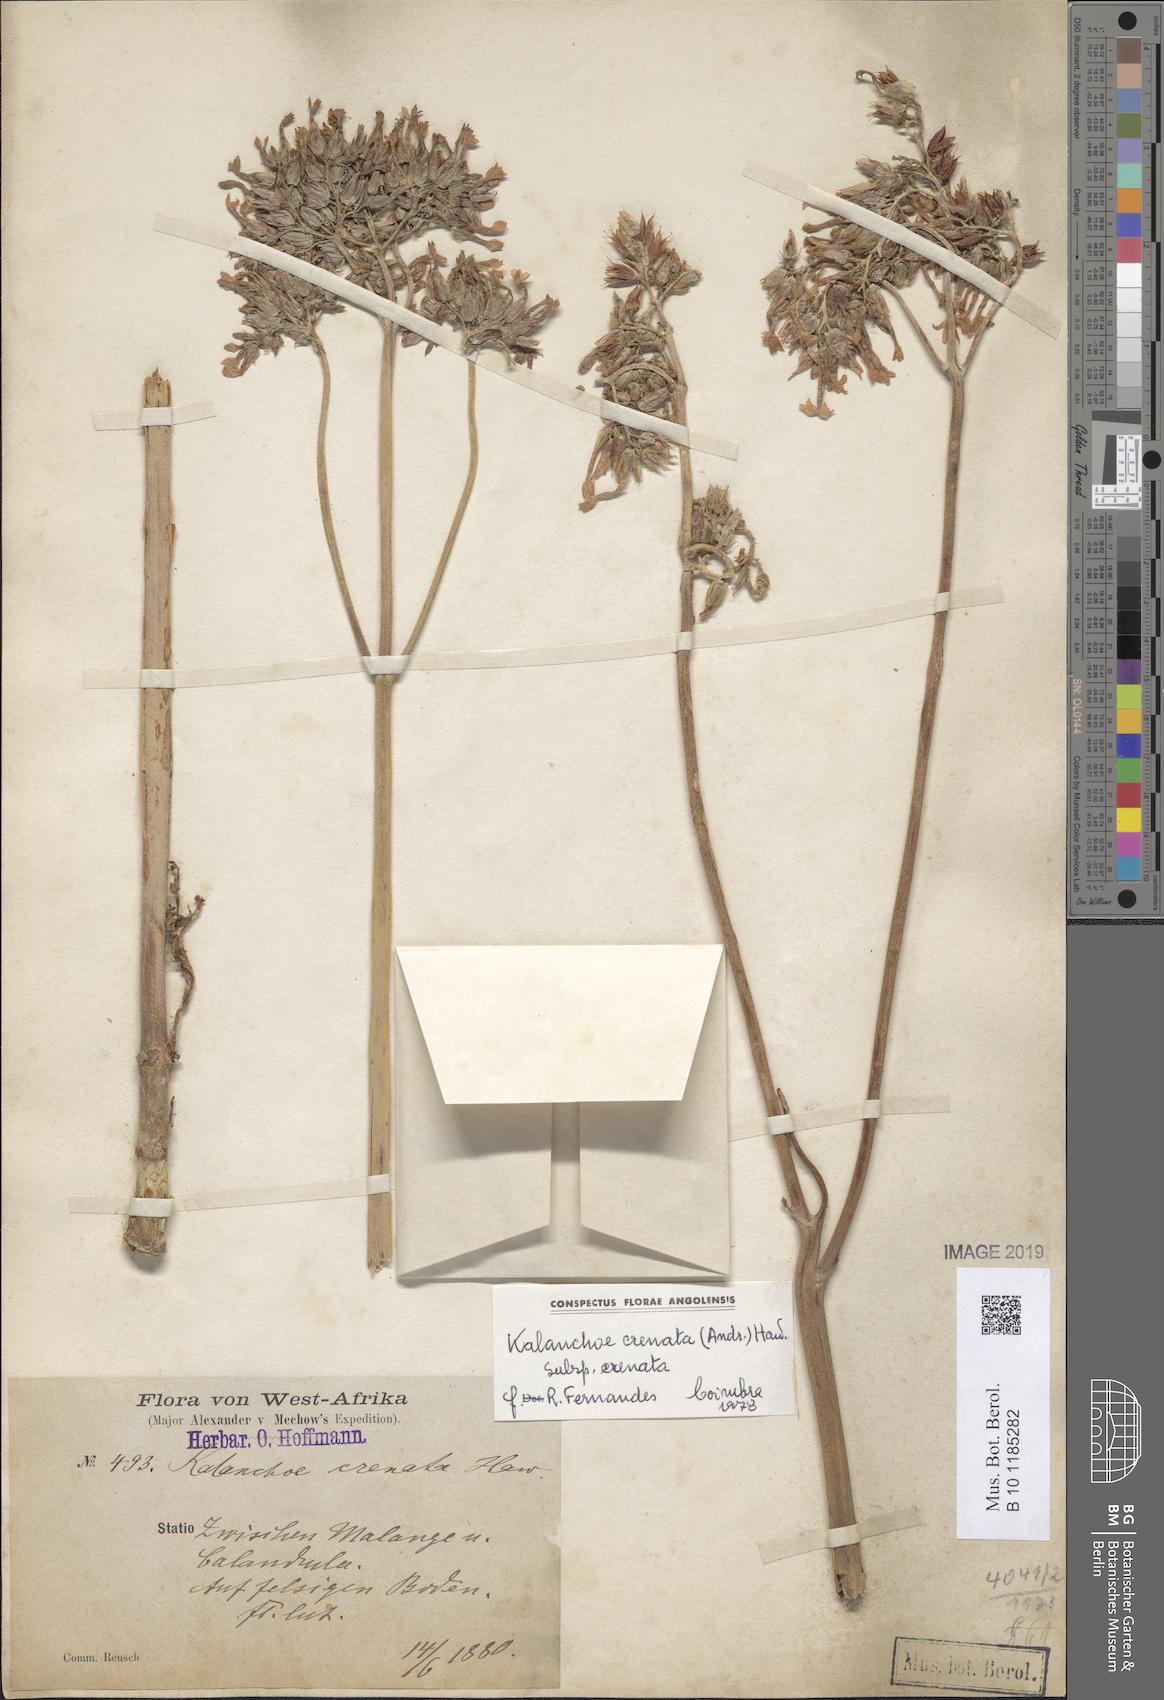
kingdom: Plantae
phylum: Tracheophyta
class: Magnoliopsida
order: Saxifragales
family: Crassulaceae
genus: Kalanchoe
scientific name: Kalanchoe crenata
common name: Neverdie
